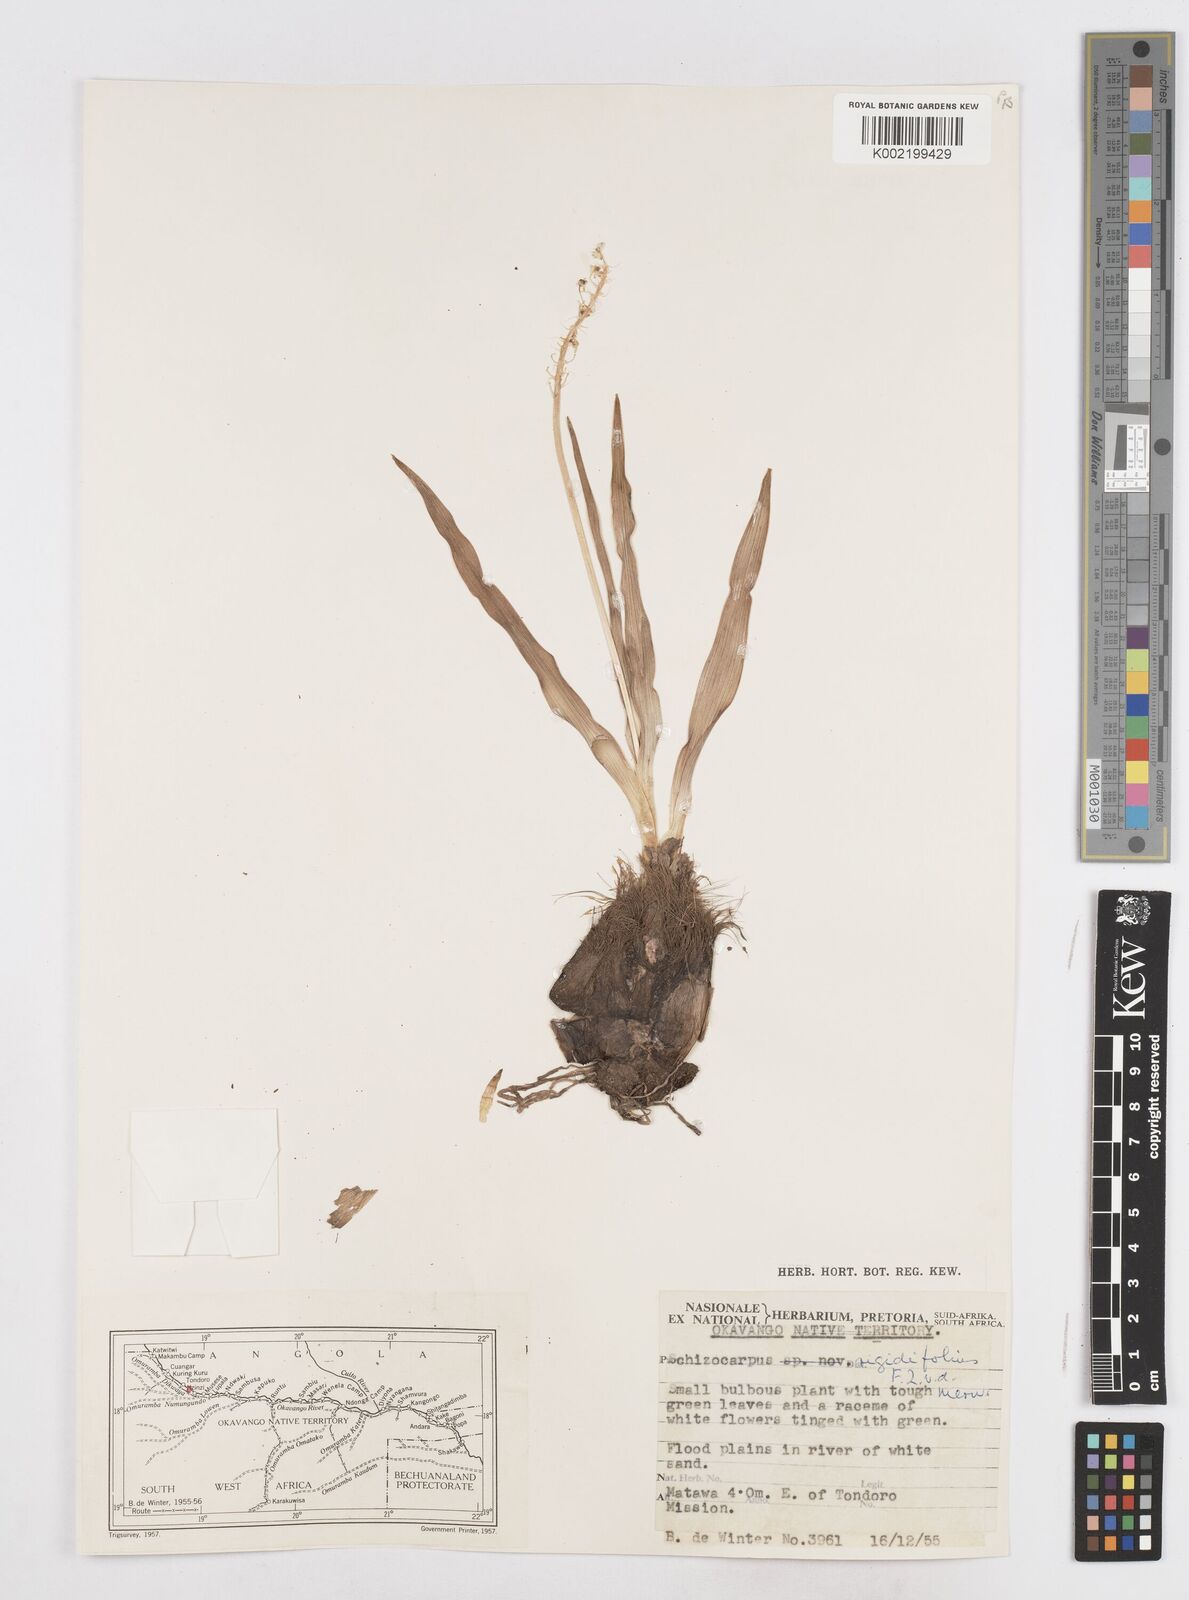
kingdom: Plantae
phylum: Tracheophyta
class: Liliopsida
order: Asparagales
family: Asparagaceae
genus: Schizocarphus
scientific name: Schizocarphus nervosus
